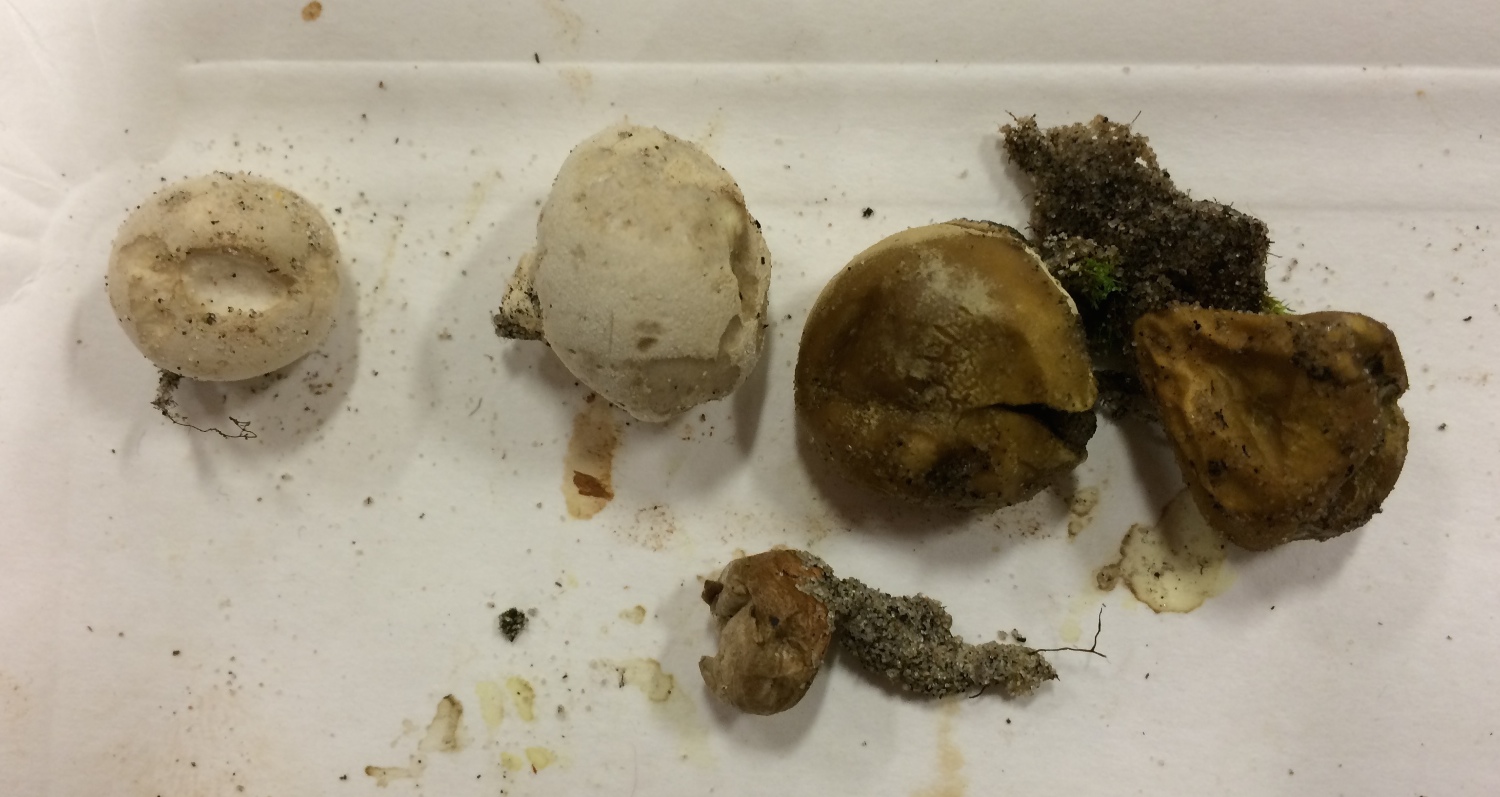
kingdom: Fungi
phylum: Basidiomycota
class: Agaricomycetes
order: Agaricales
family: Lycoperdaceae
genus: Bovista
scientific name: Bovista aestivalis
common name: klit-bovist
